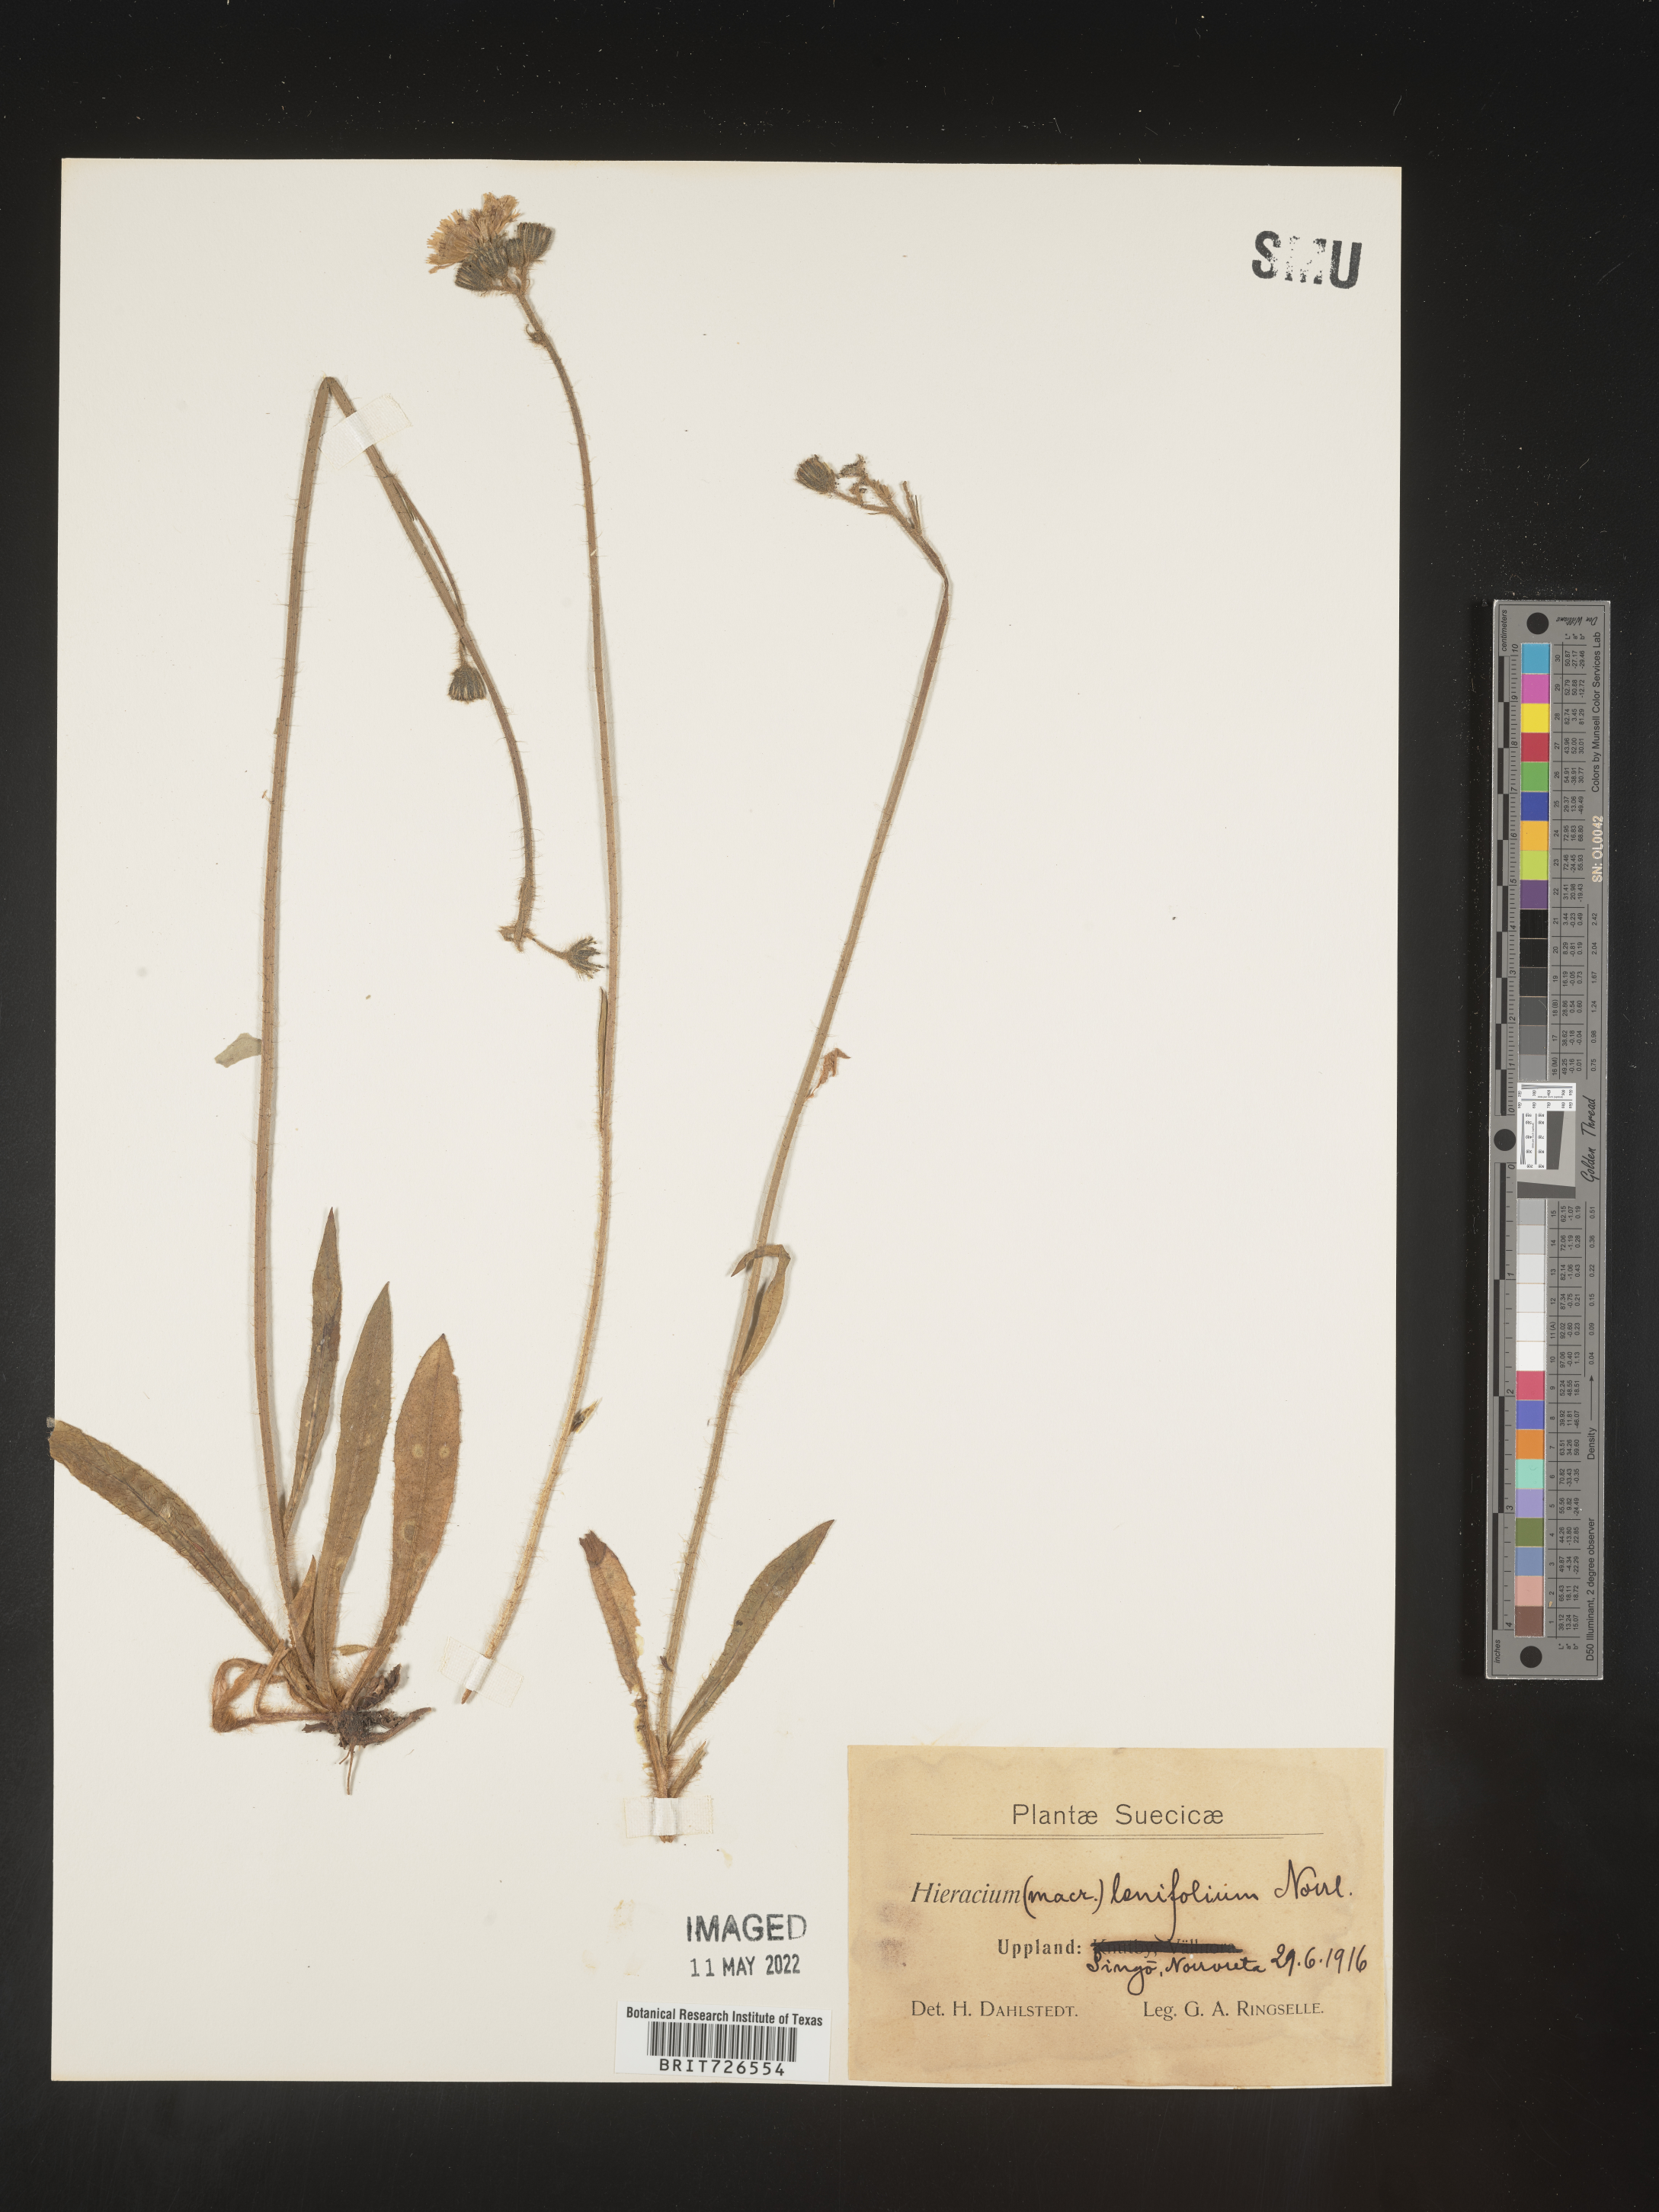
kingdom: Plantae
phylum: Tracheophyta
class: Magnoliopsida
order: Asterales
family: Asteraceae
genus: Hieracium
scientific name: Hieracium
